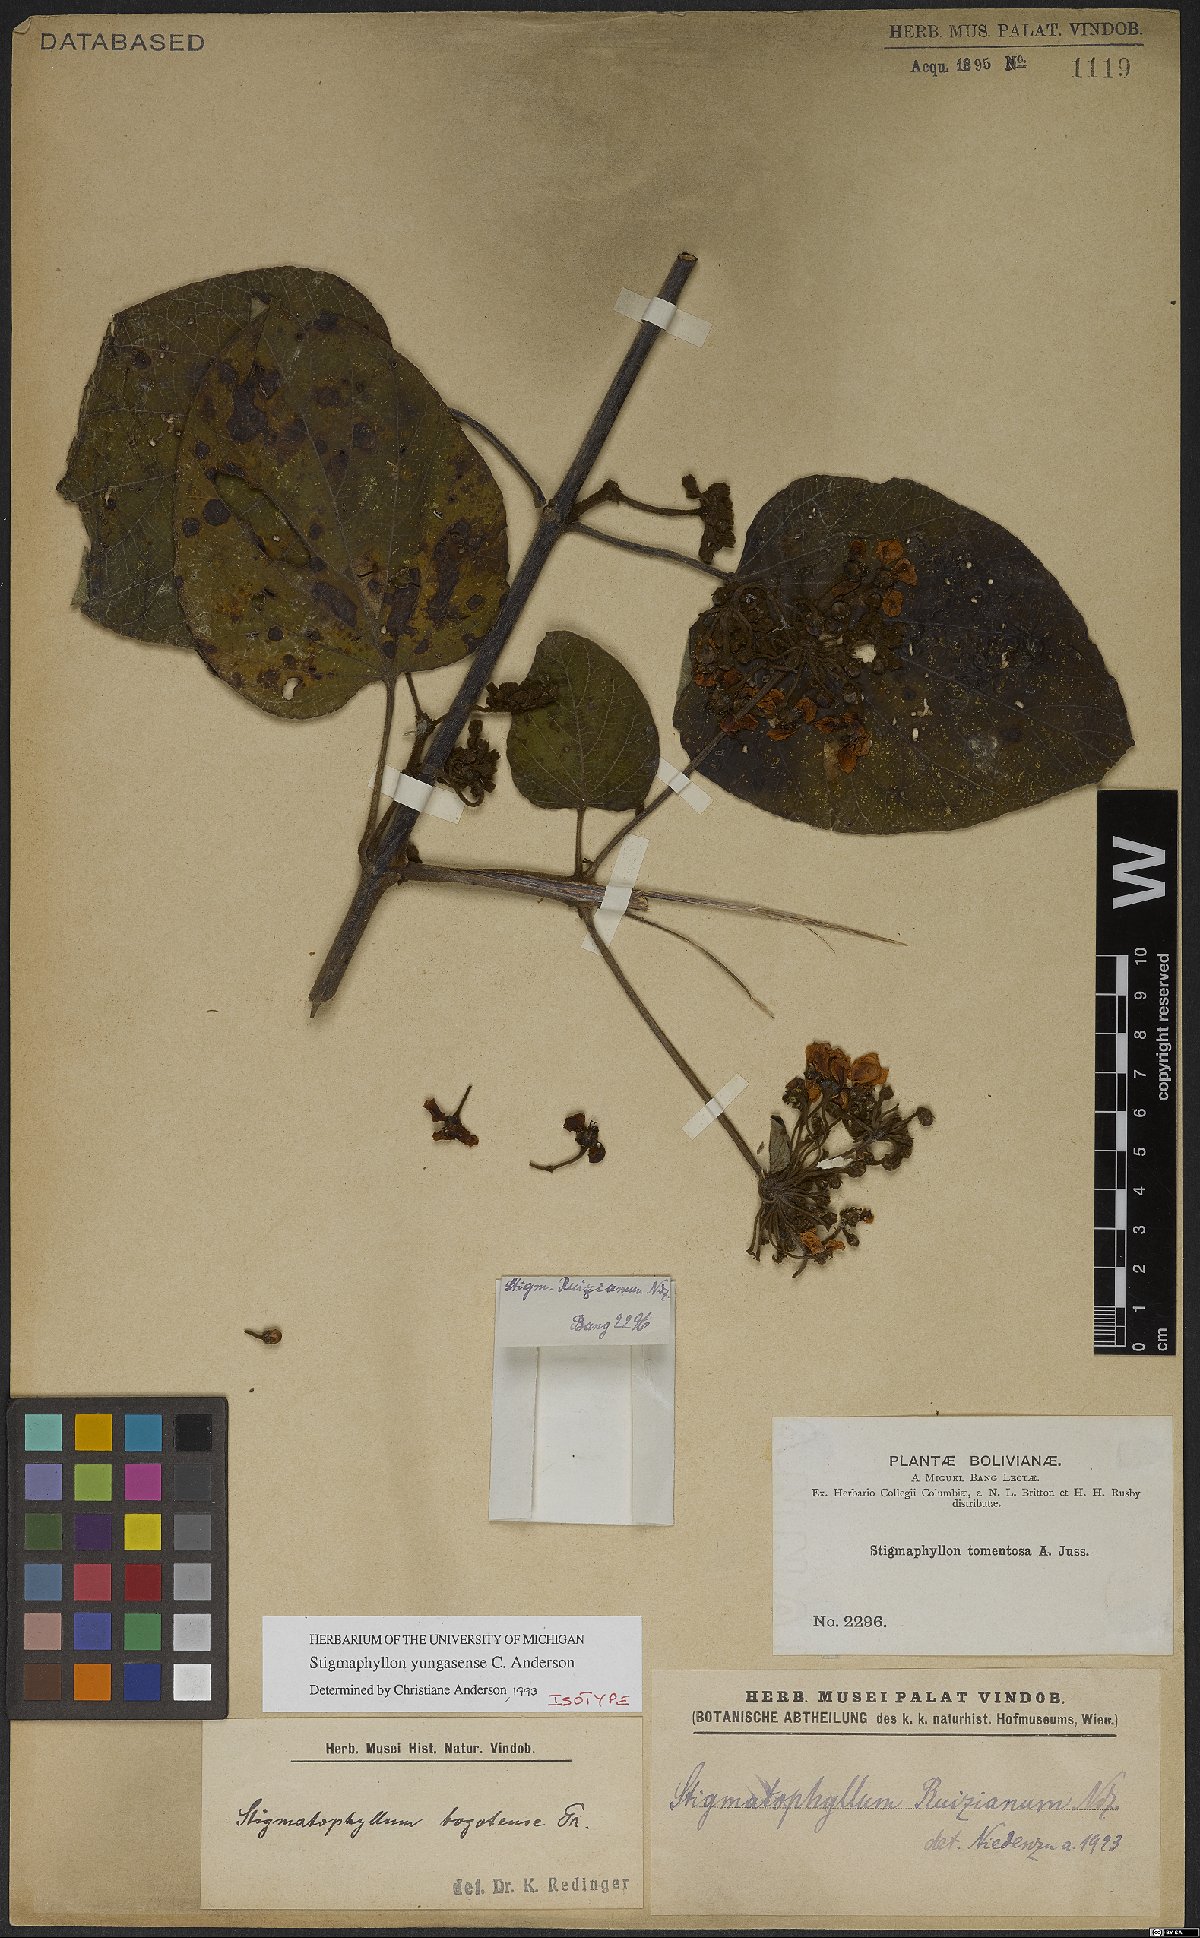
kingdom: Plantae
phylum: Tracheophyta
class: Magnoliopsida
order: Malpighiales
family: Malpighiaceae
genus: Stigmaphyllon
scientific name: Stigmaphyllon yungasense
